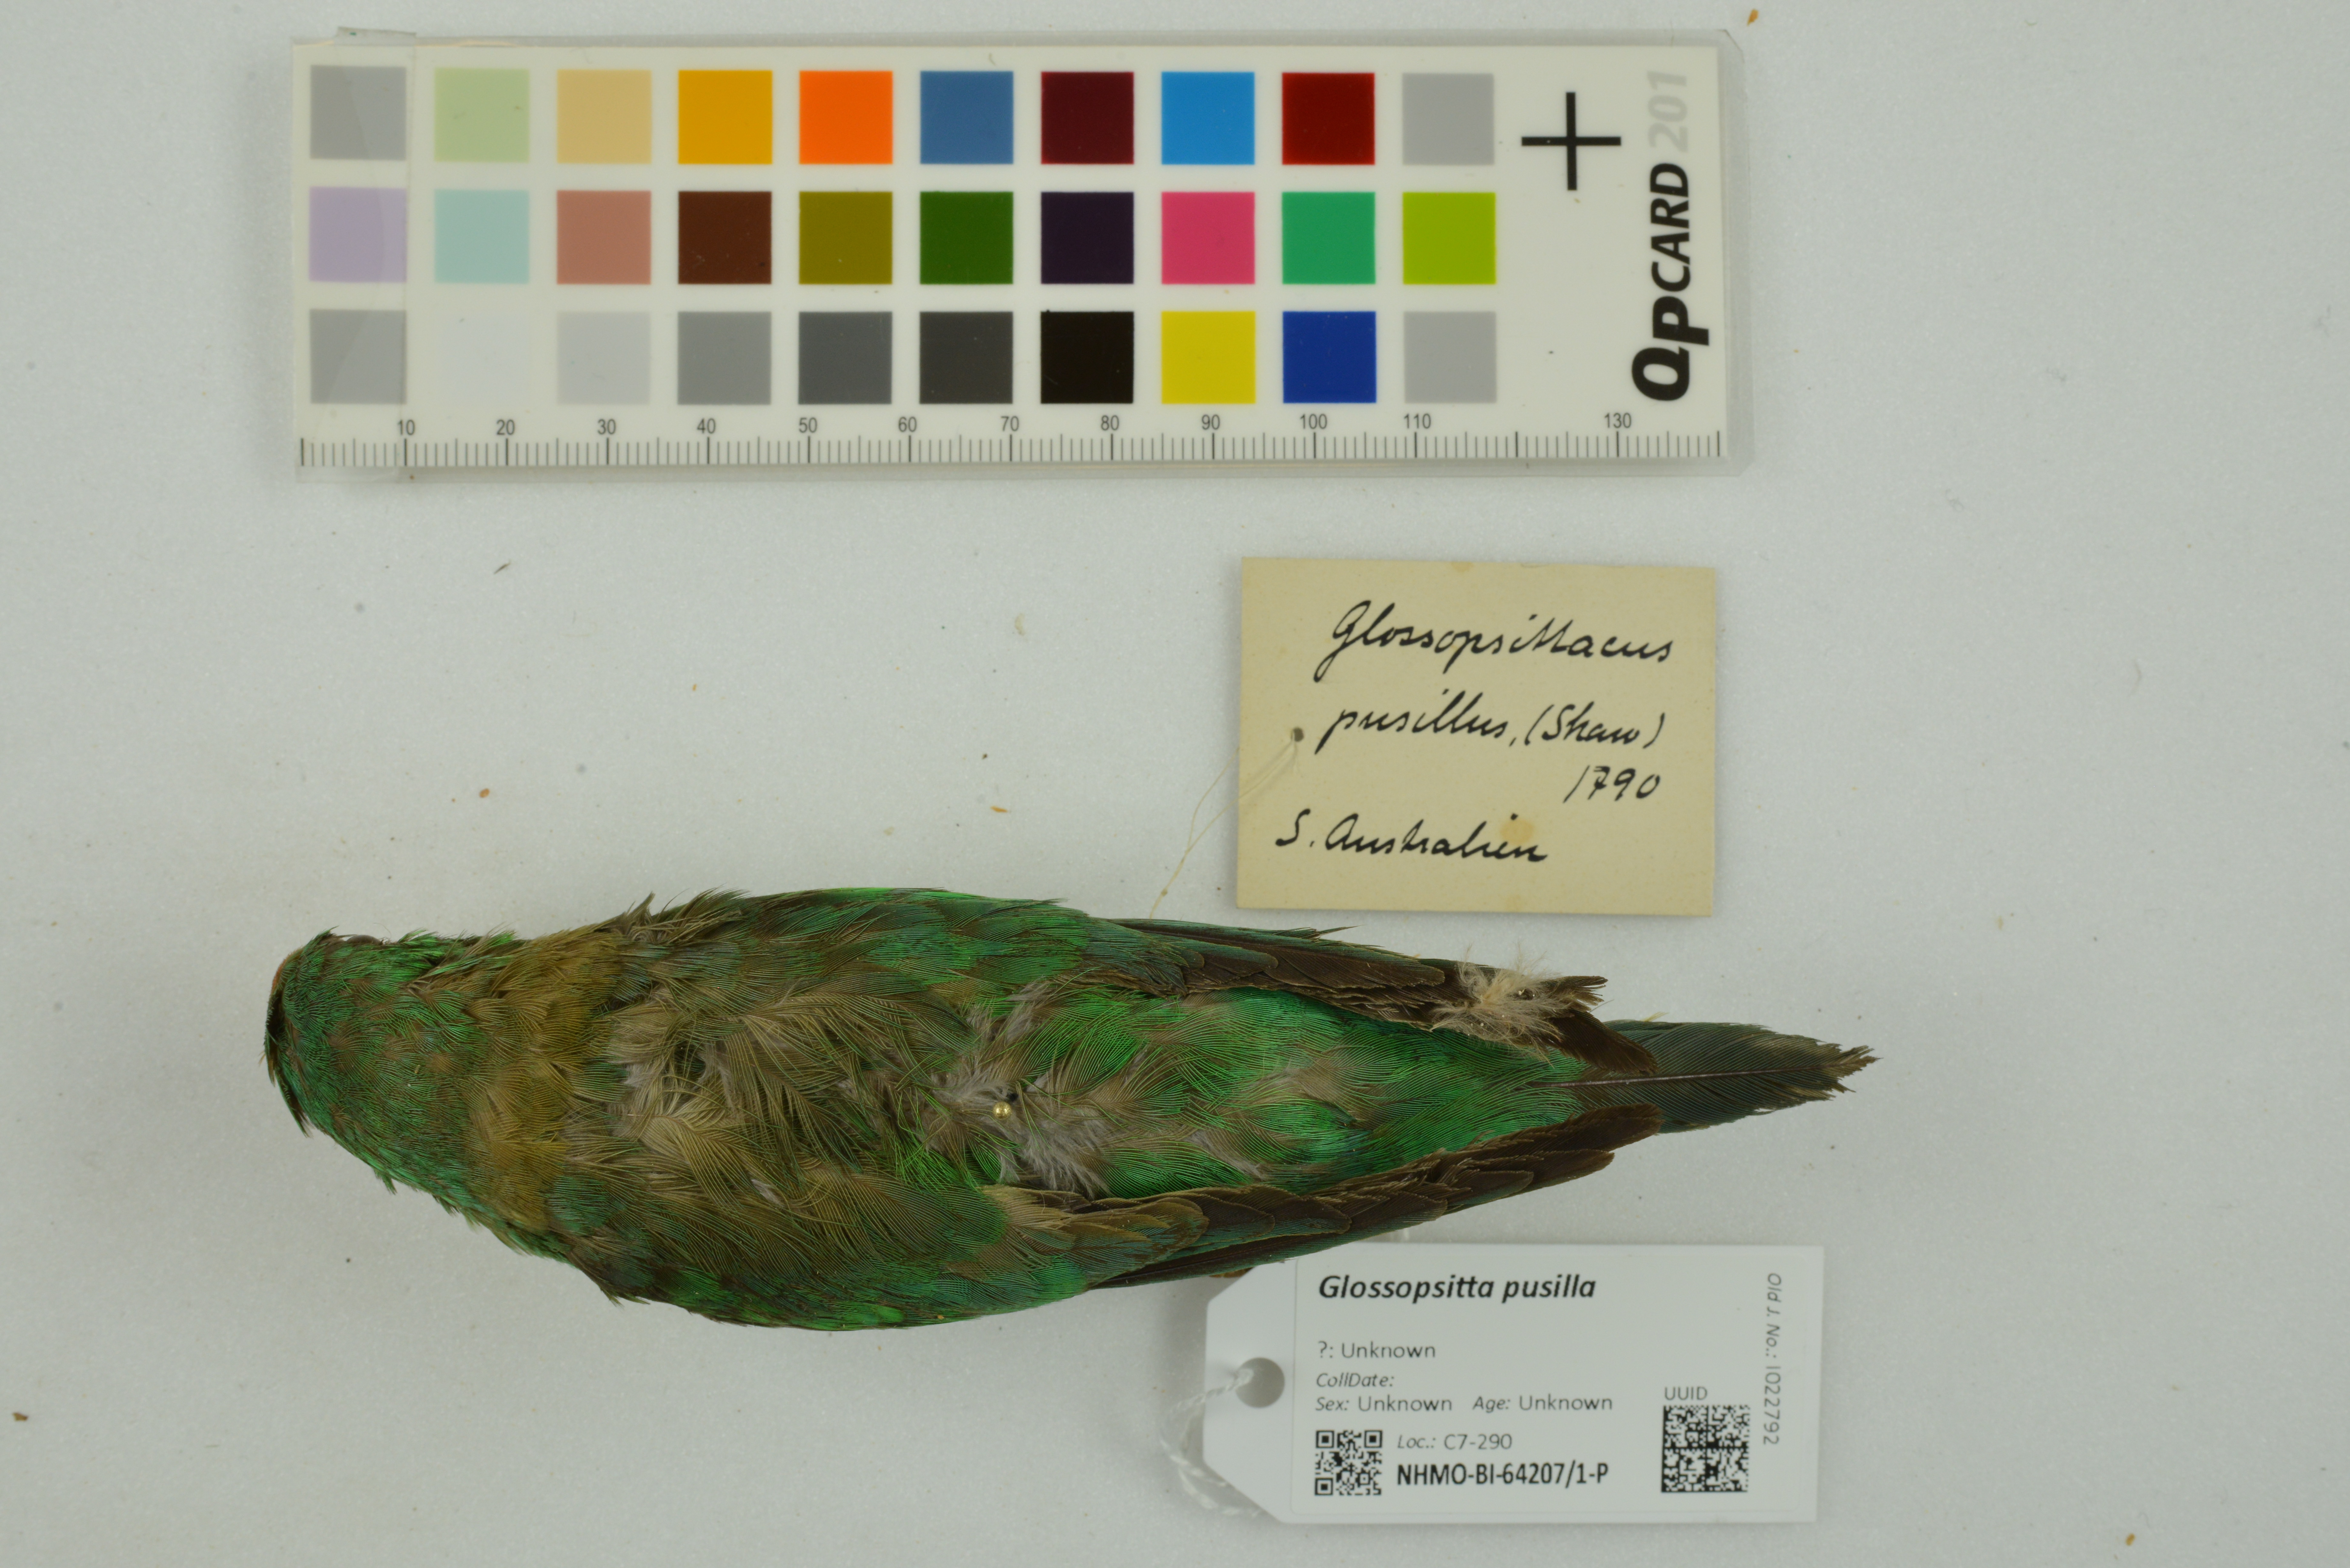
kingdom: Animalia
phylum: Chordata
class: Aves
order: Psittaciformes
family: Psittaculidae
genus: Parvipsitta
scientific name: Parvipsitta pusilla
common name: Little lorikeet
